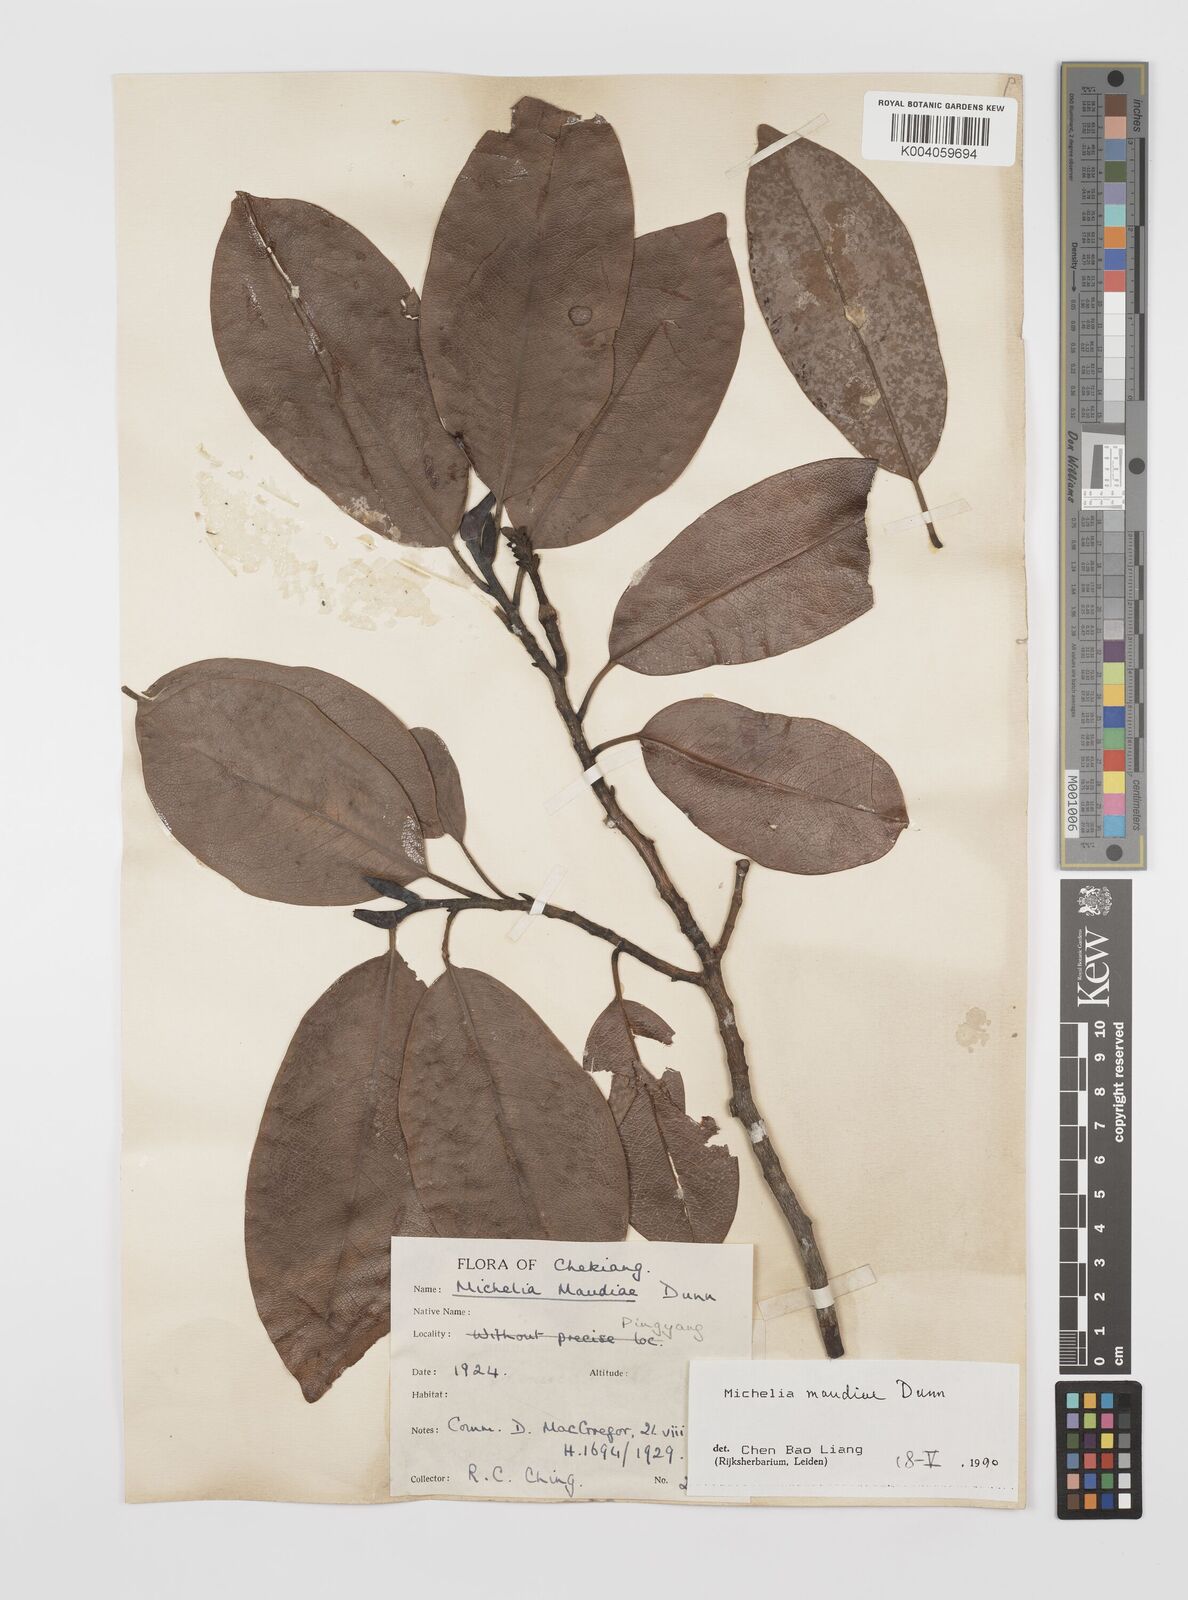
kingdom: Plantae
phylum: Tracheophyta
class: Magnoliopsida
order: Magnoliales
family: Magnoliaceae
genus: Magnolia
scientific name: Magnolia maudiae
